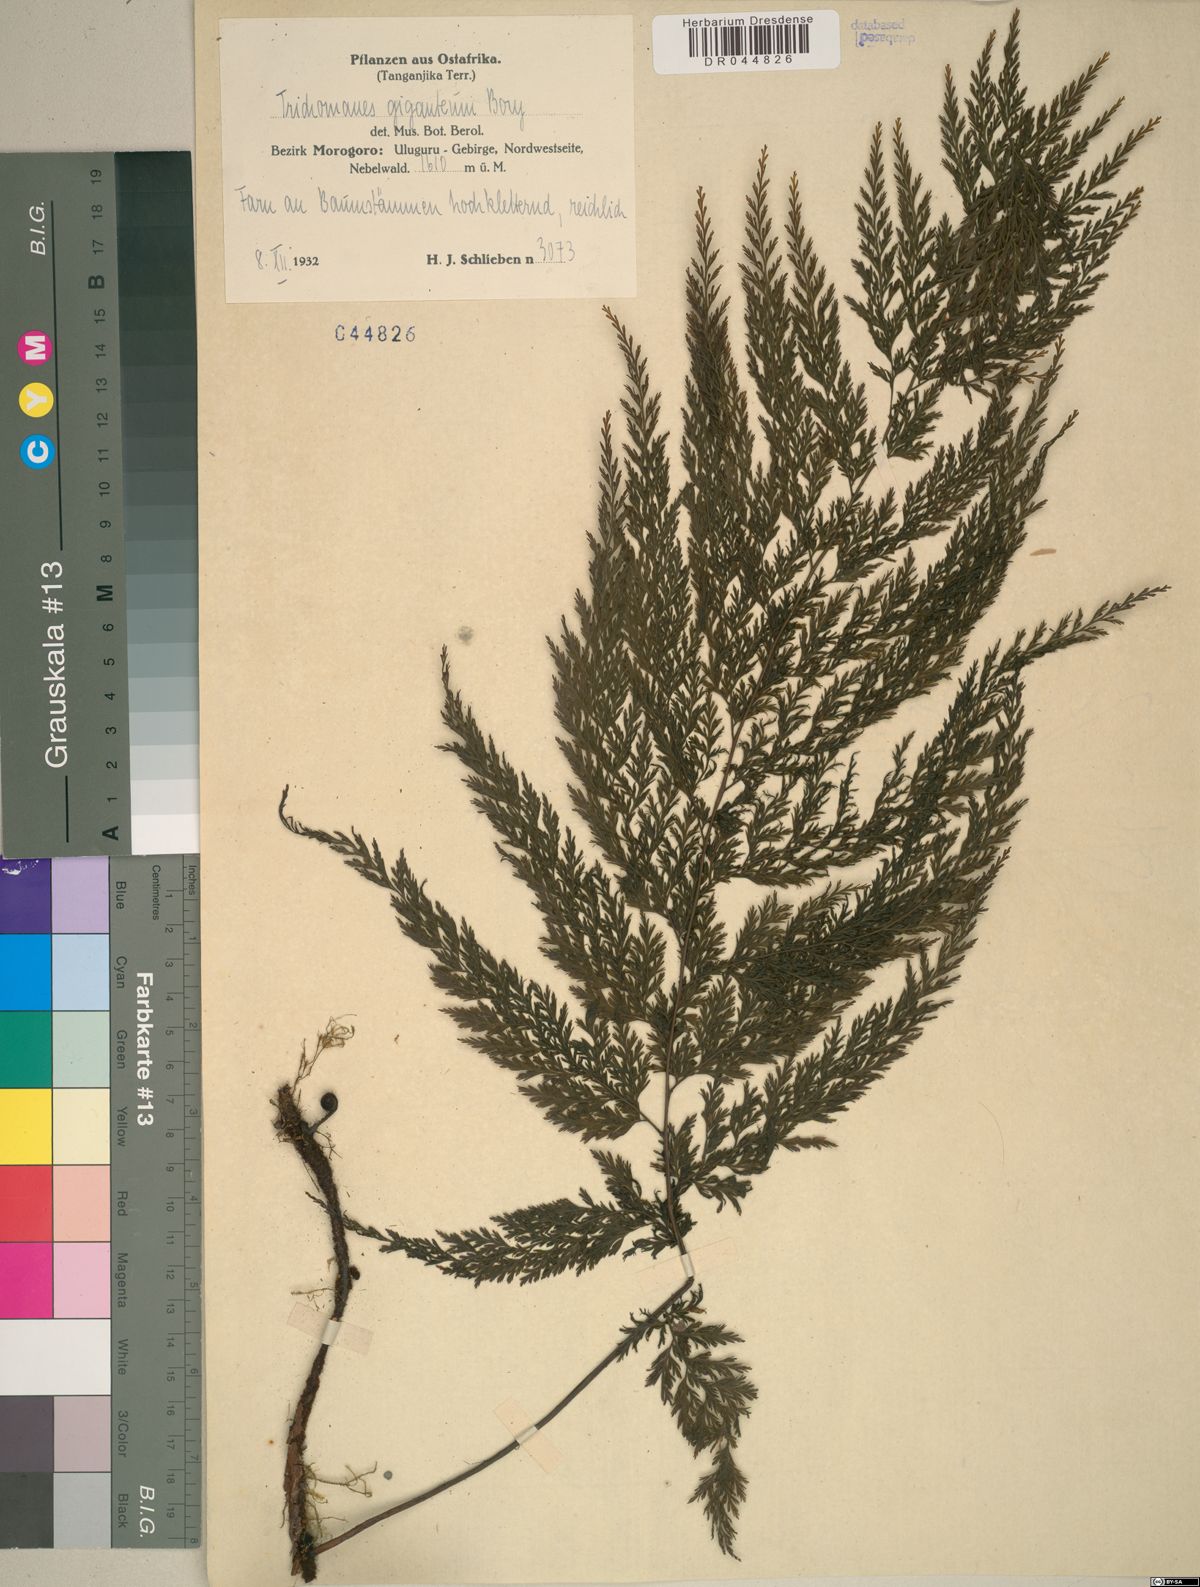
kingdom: Plantae
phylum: Tracheophyta
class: Polypodiopsida
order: Hymenophyllales
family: Hymenophyllaceae
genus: Vandenboschia
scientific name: Vandenboschia gigantea
